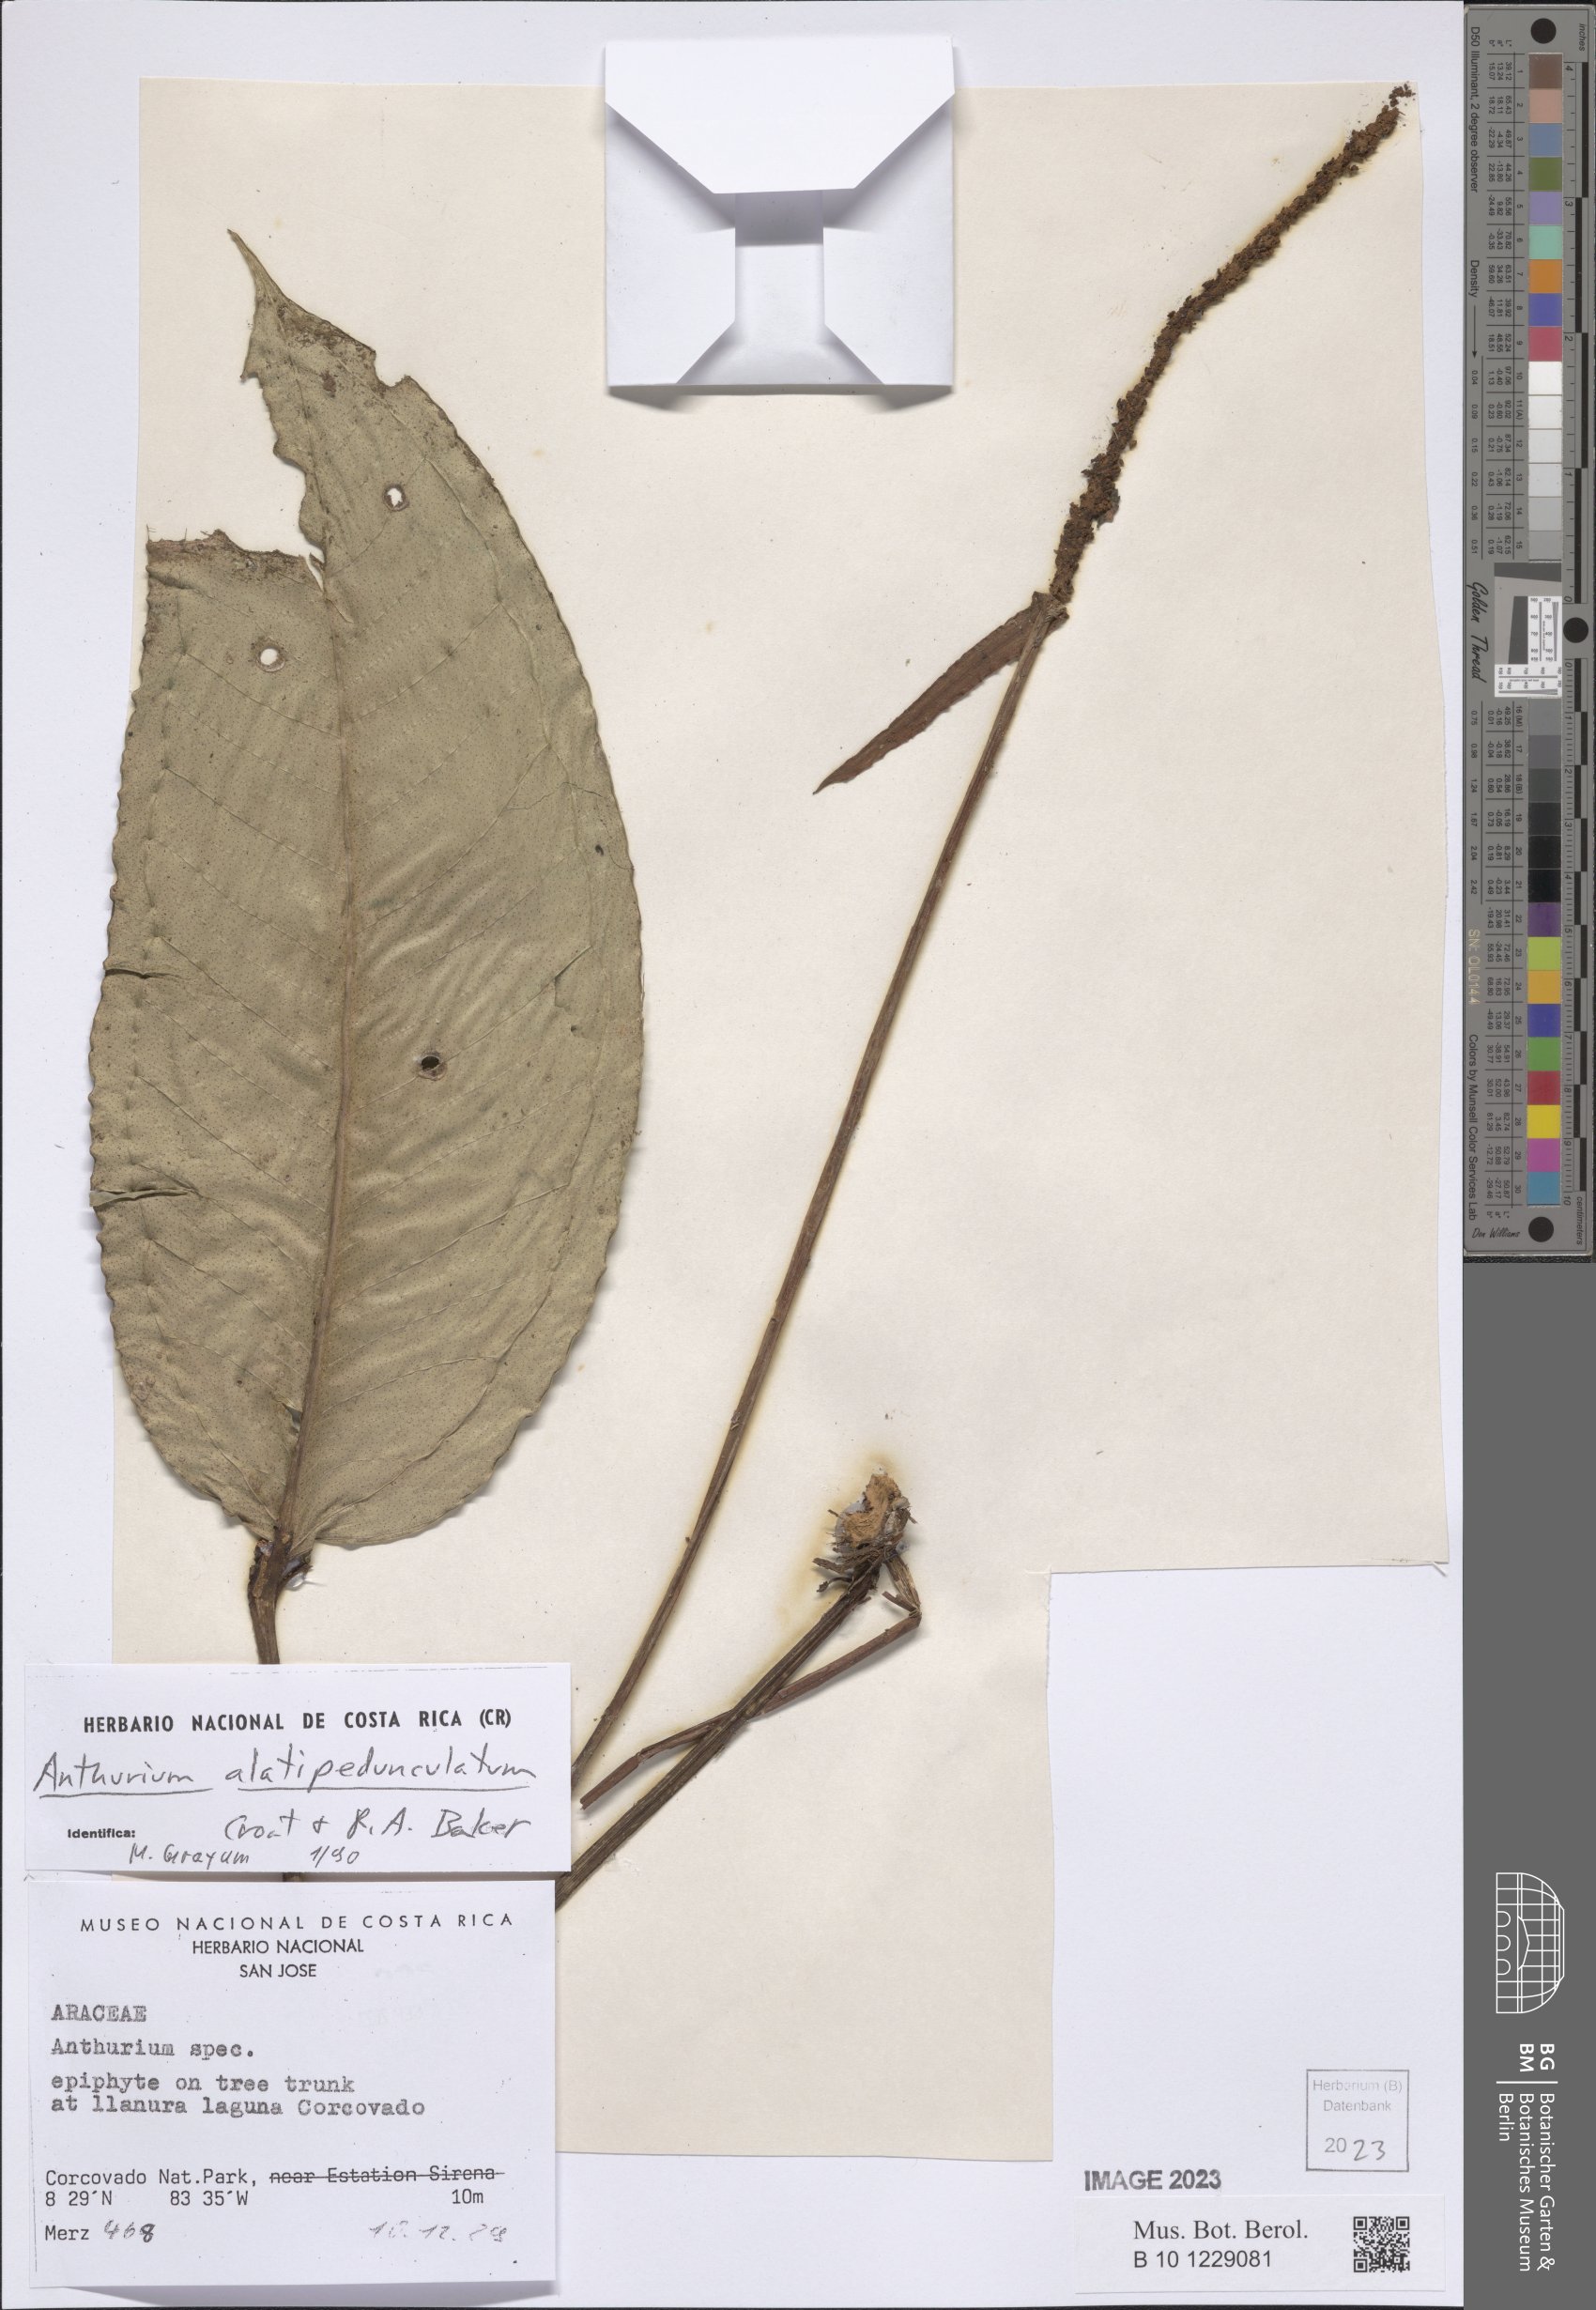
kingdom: Plantae
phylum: Tracheophyta
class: Liliopsida
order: Alismatales
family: Araceae
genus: Anthurium
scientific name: Anthurium alatipedunculatum
